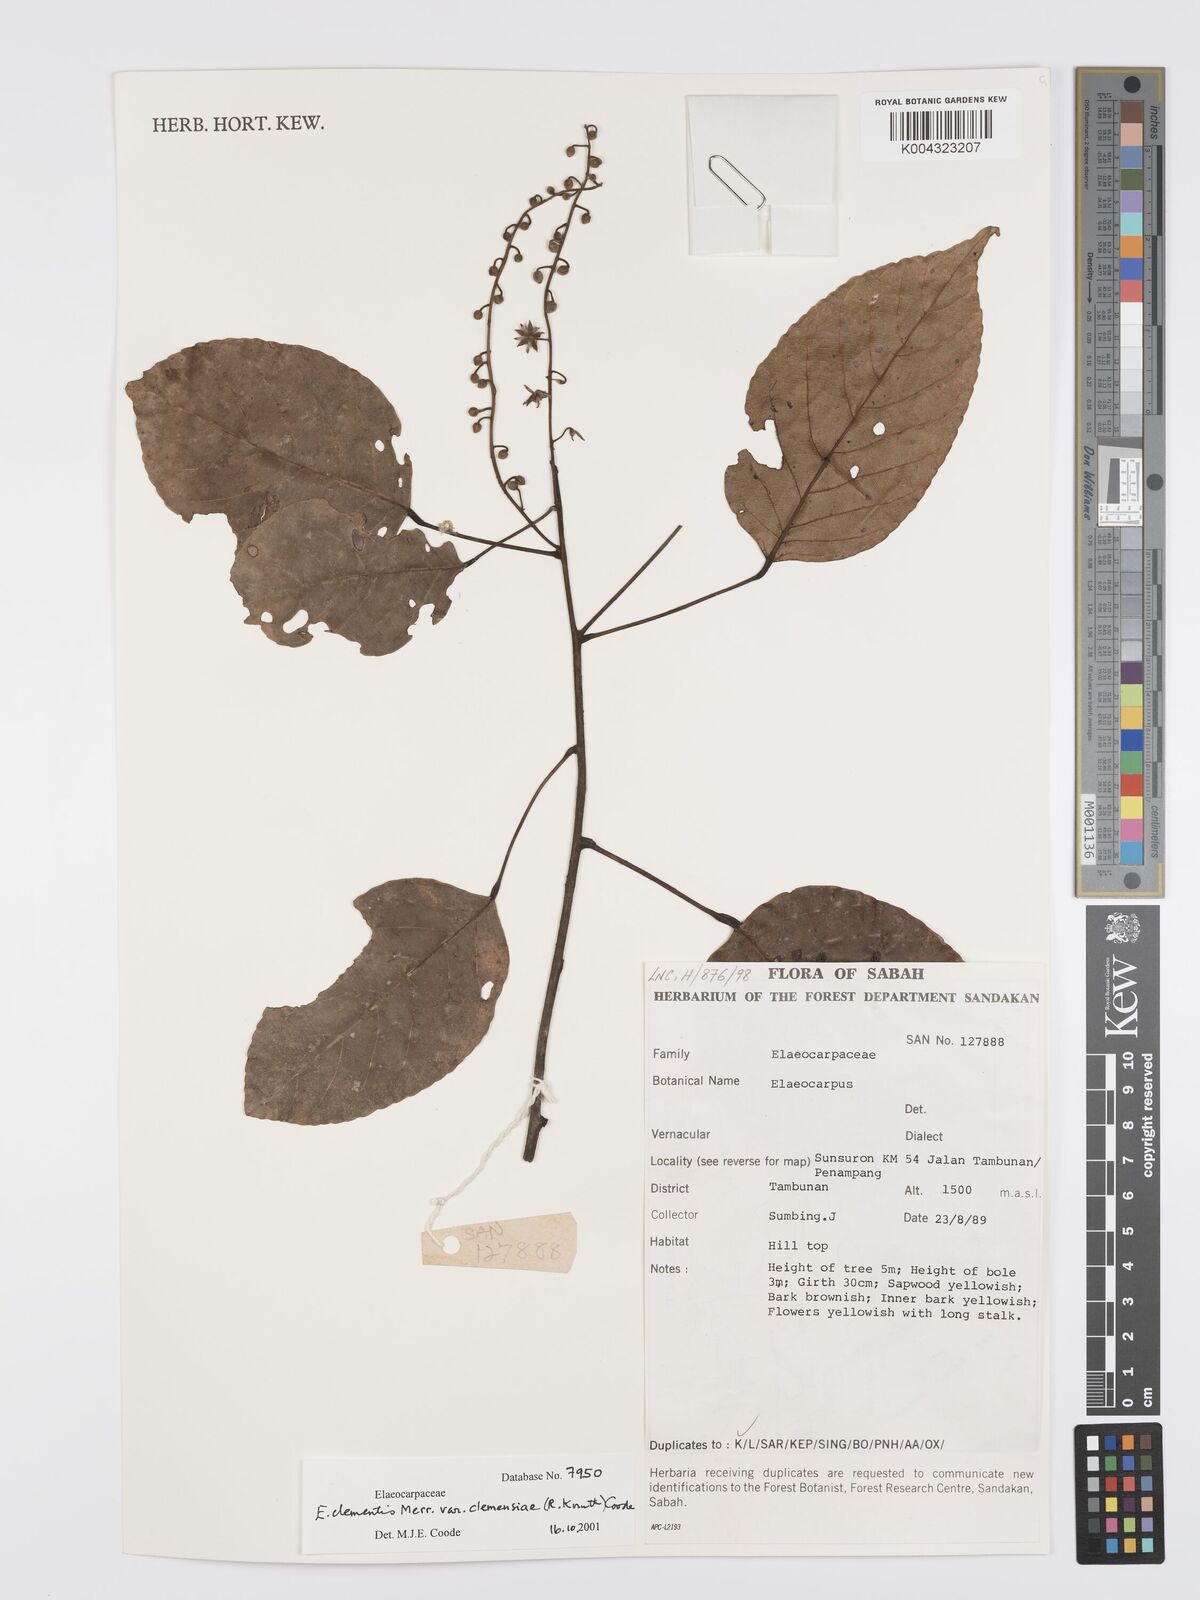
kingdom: Plantae
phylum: Tracheophyta
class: Magnoliopsida
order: Oxalidales
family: Elaeocarpaceae
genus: Elaeocarpus
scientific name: Elaeocarpus clementis
